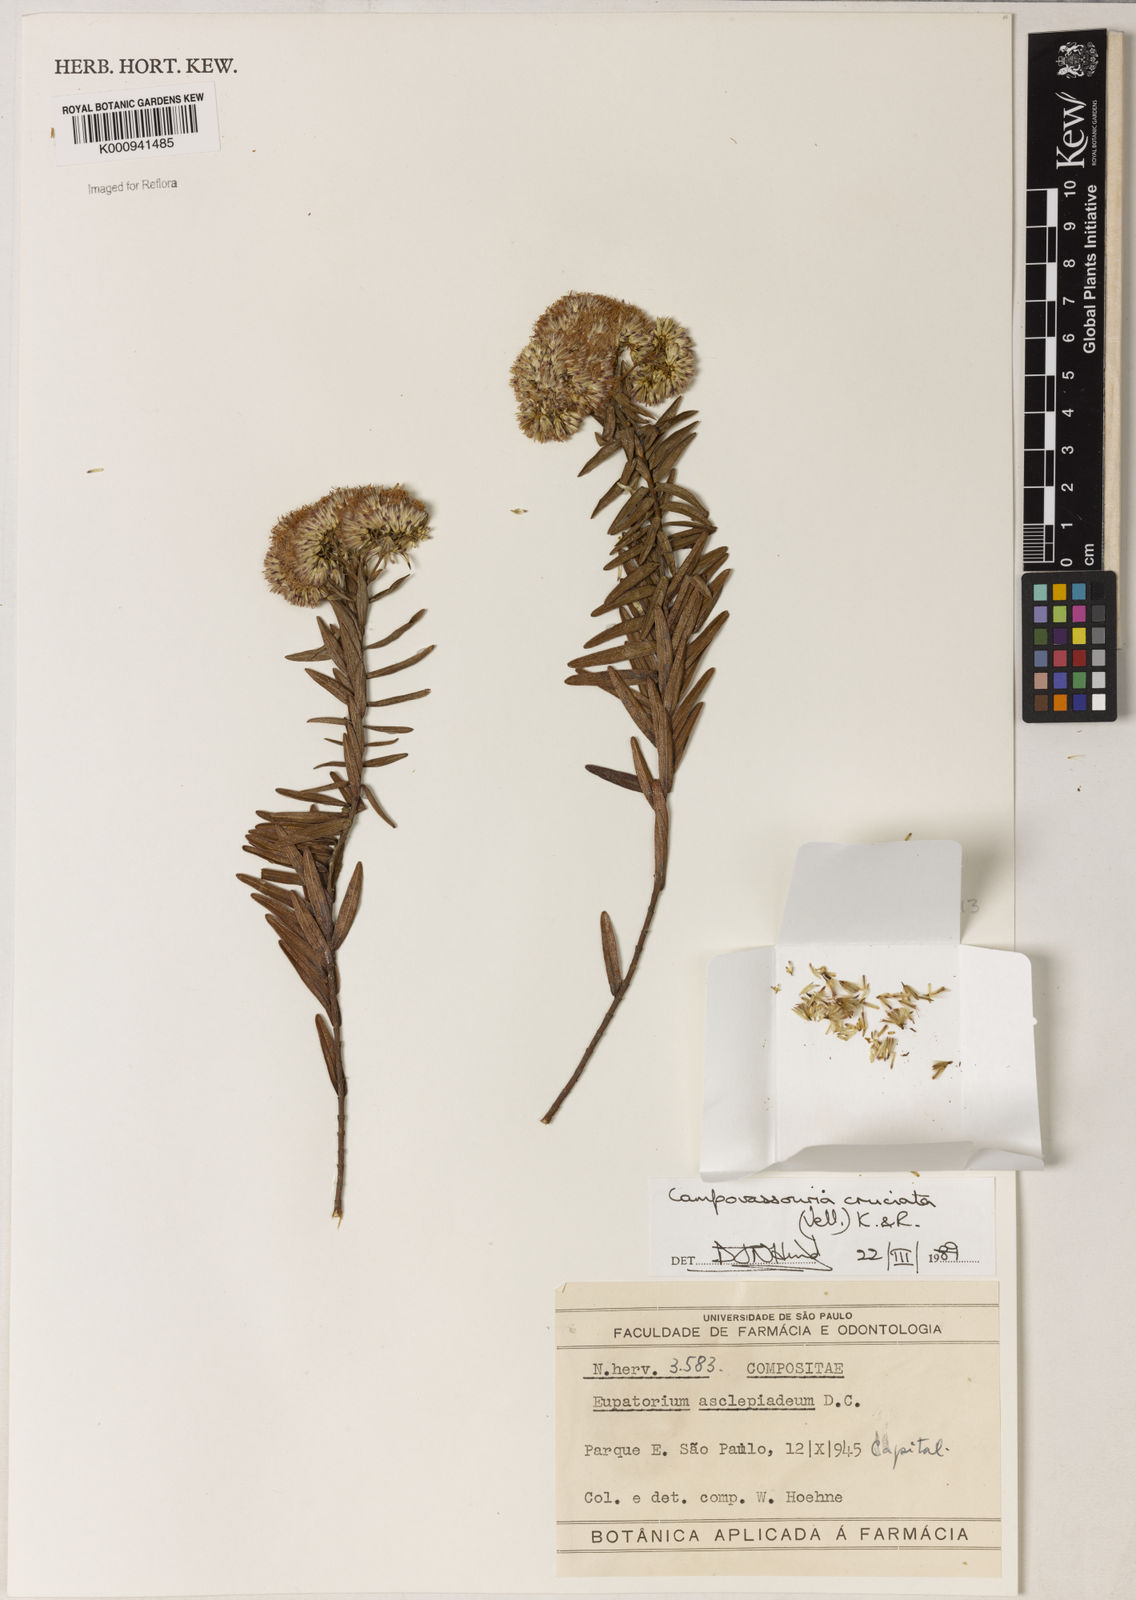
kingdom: Plantae
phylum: Tracheophyta
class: Magnoliopsida
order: Asterales
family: Asteraceae
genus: Campovassouria
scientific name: Campovassouria cruciata
